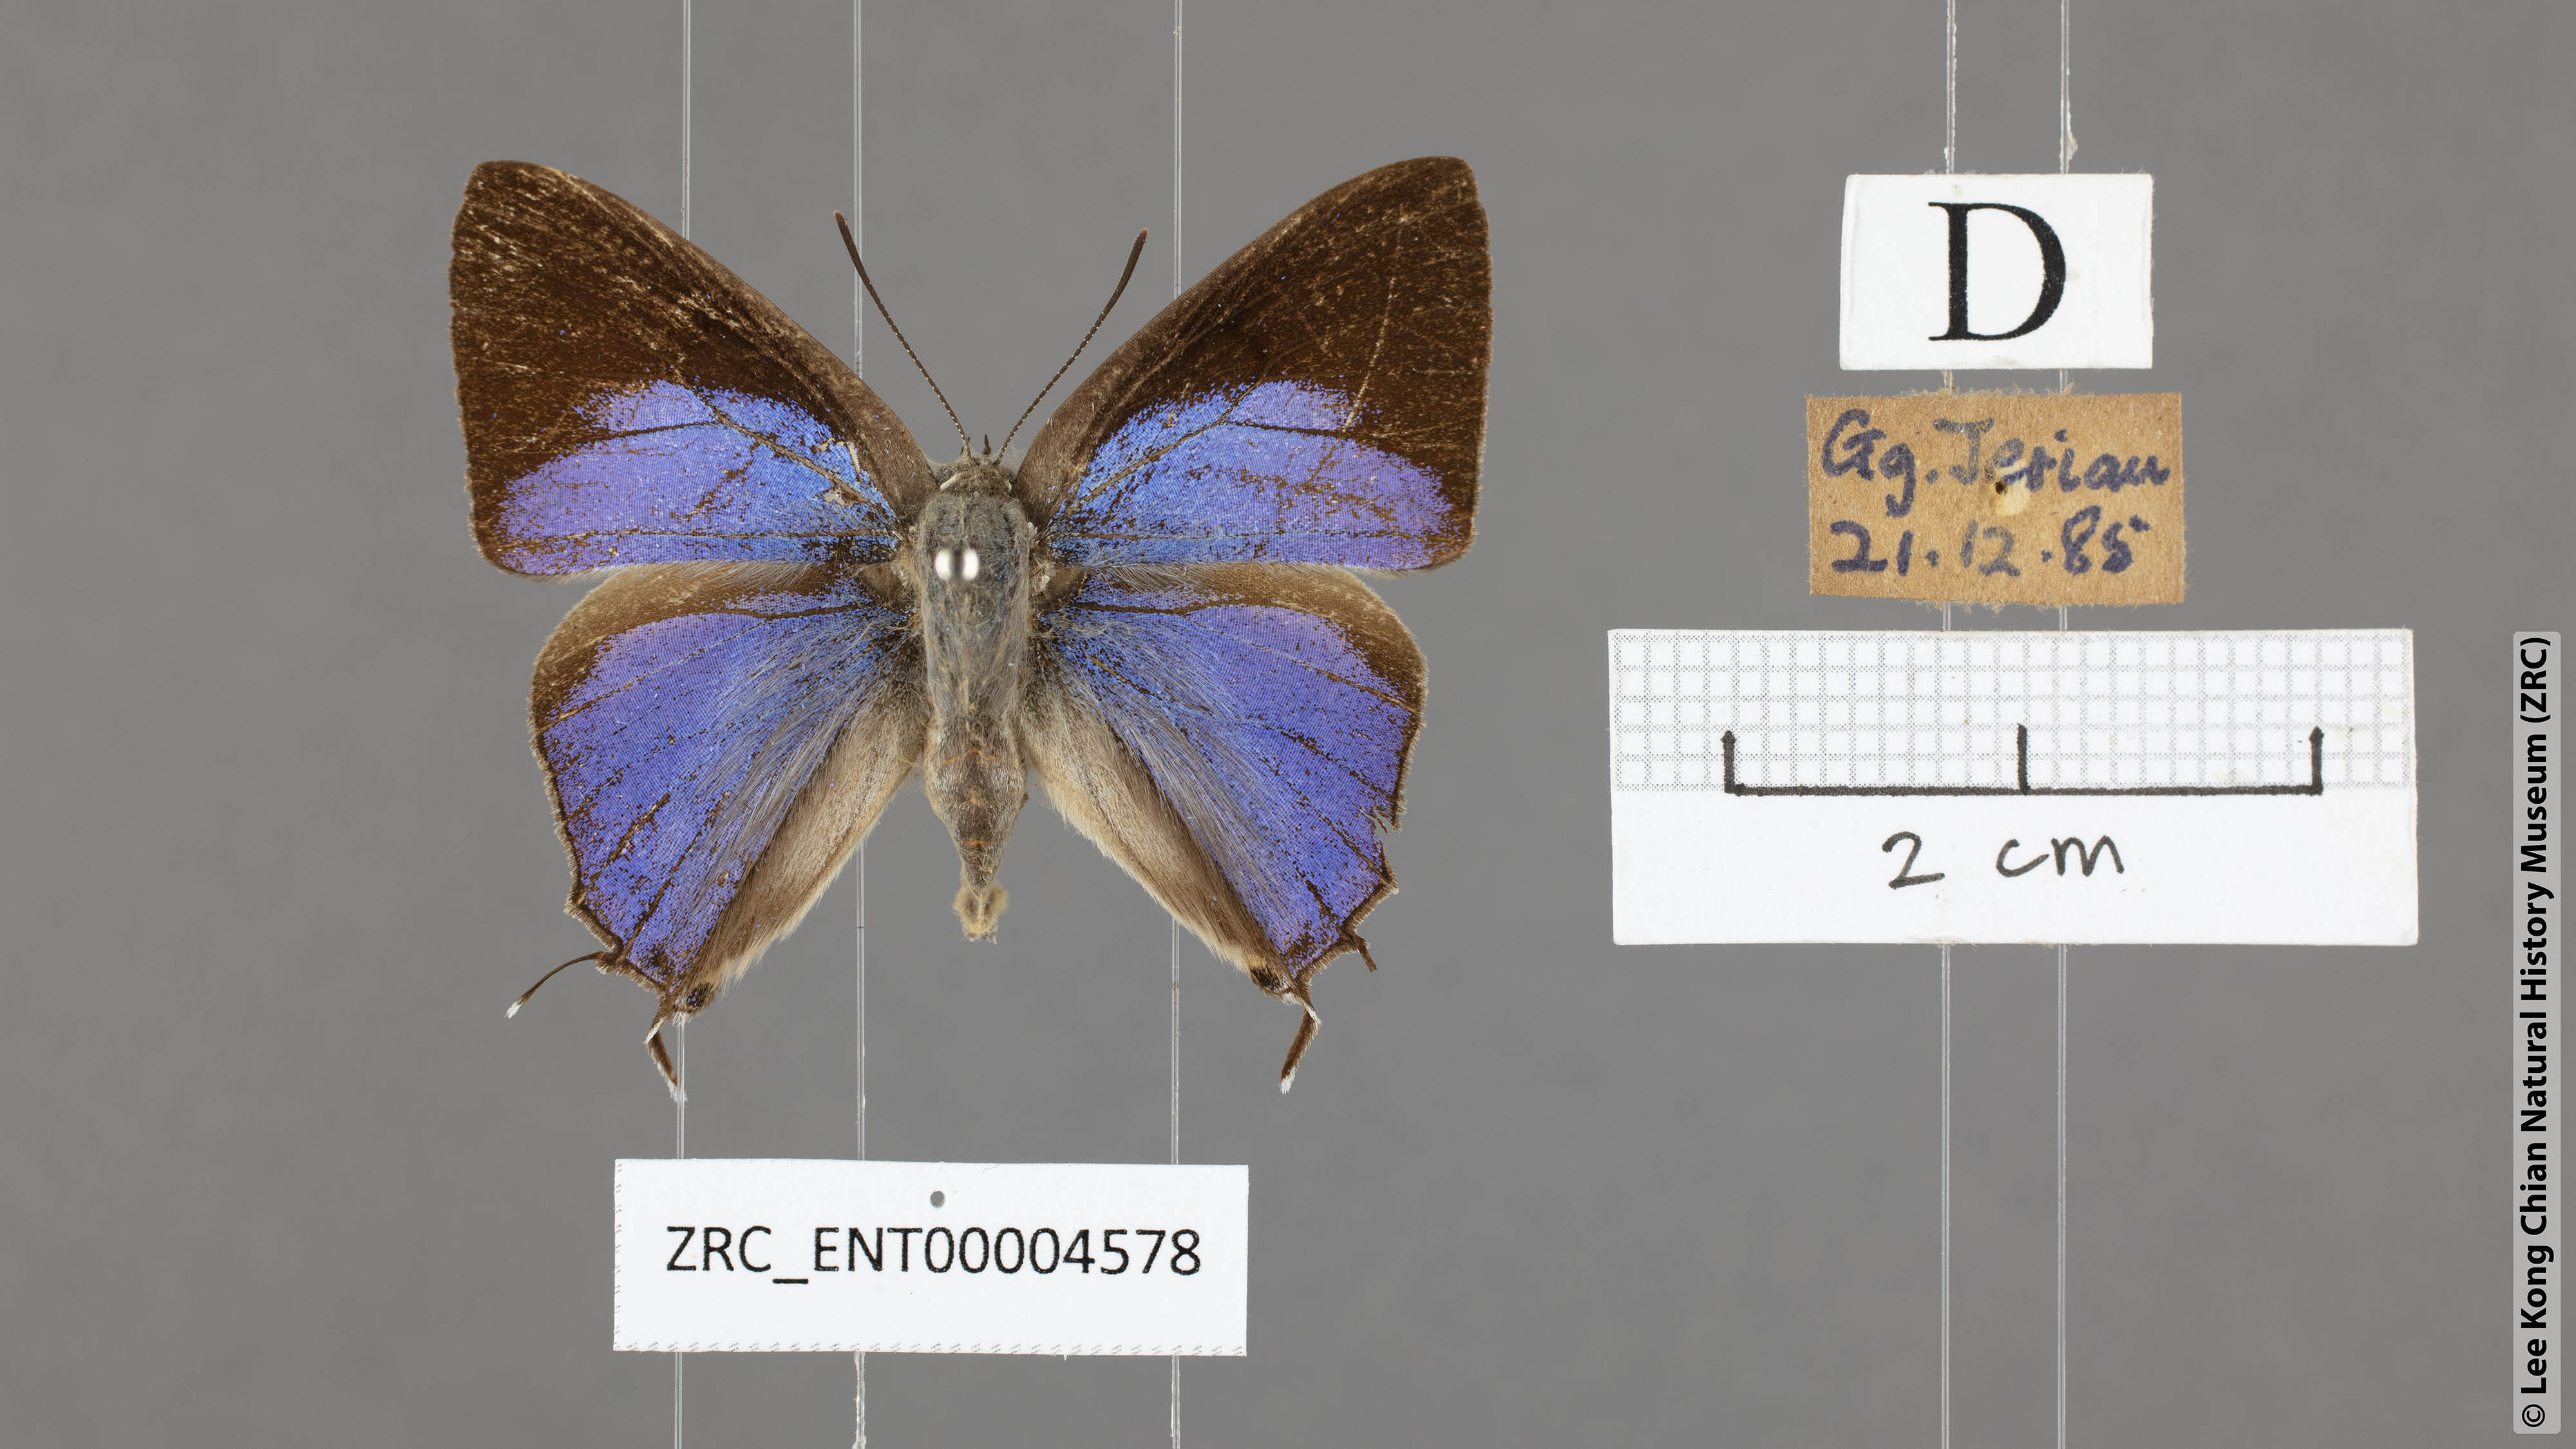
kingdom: Animalia
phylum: Arthropoda
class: Insecta
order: Lepidoptera
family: Lycaenidae
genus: Tajuria
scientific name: Tajuria albiplaga
